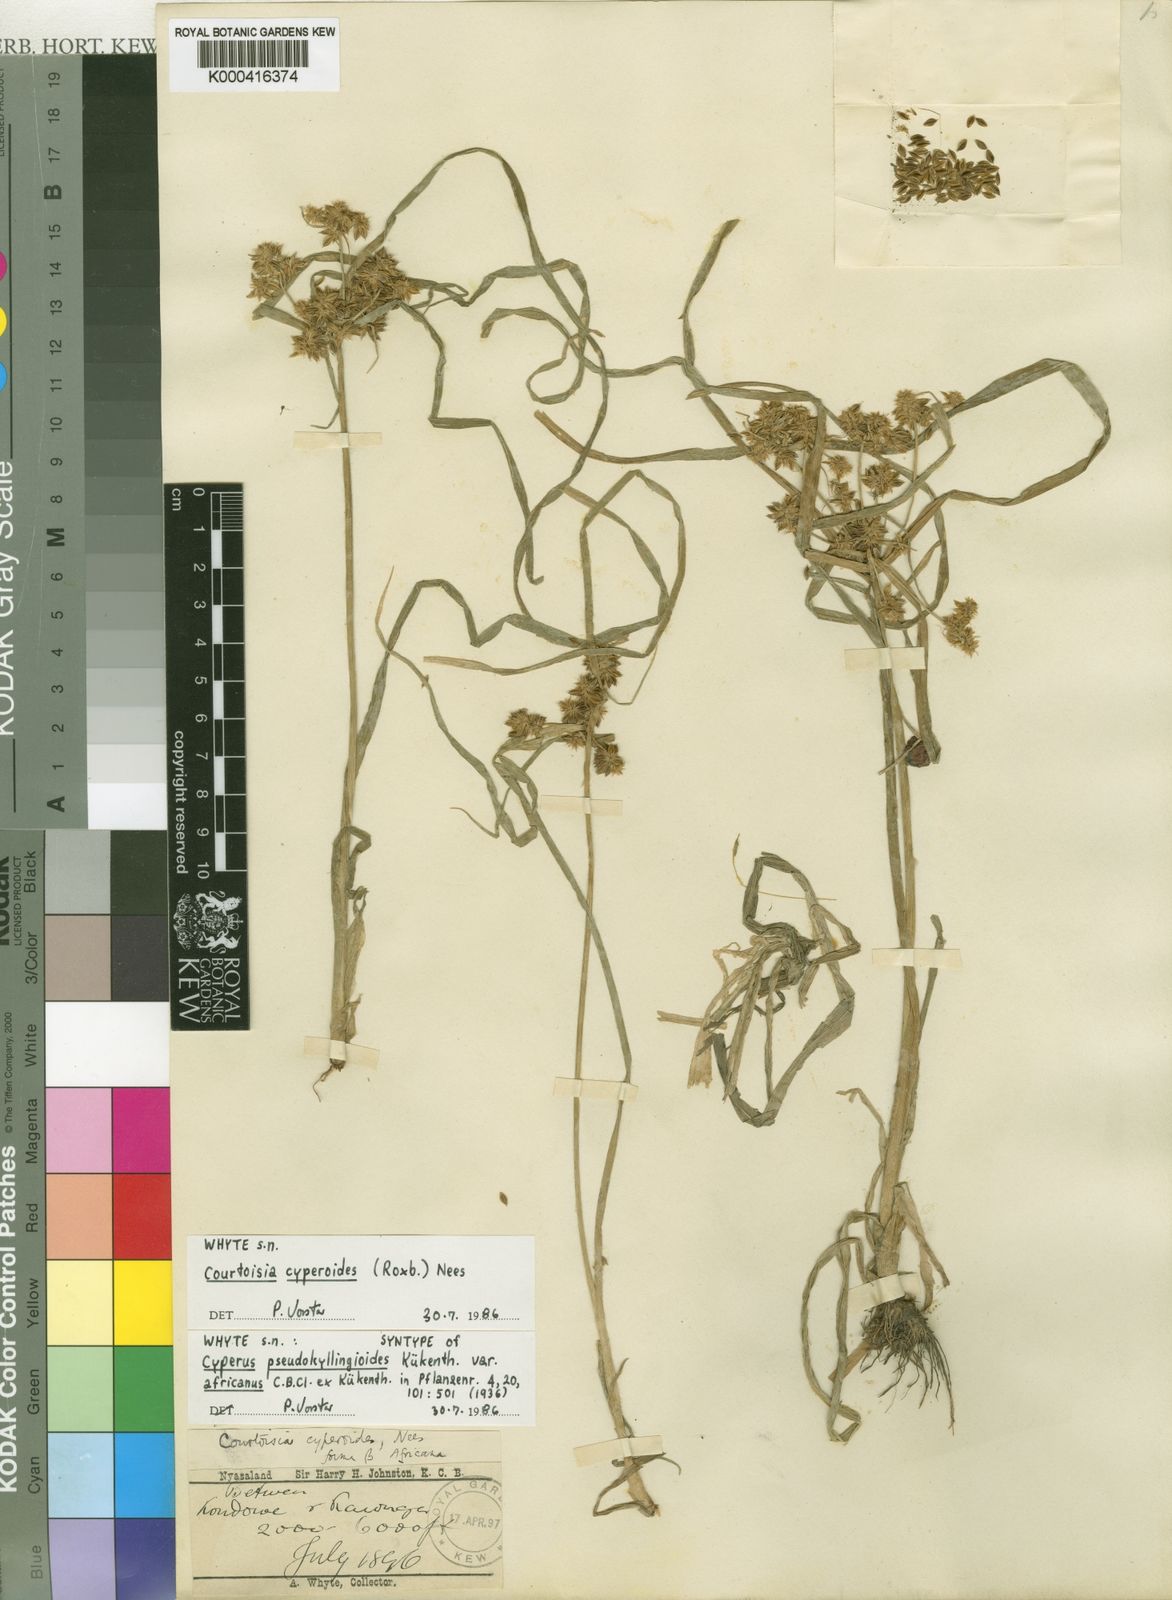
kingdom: Plantae
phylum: Tracheophyta
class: Liliopsida
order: Poales
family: Cyperaceae
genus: Cyperus
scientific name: Cyperus
